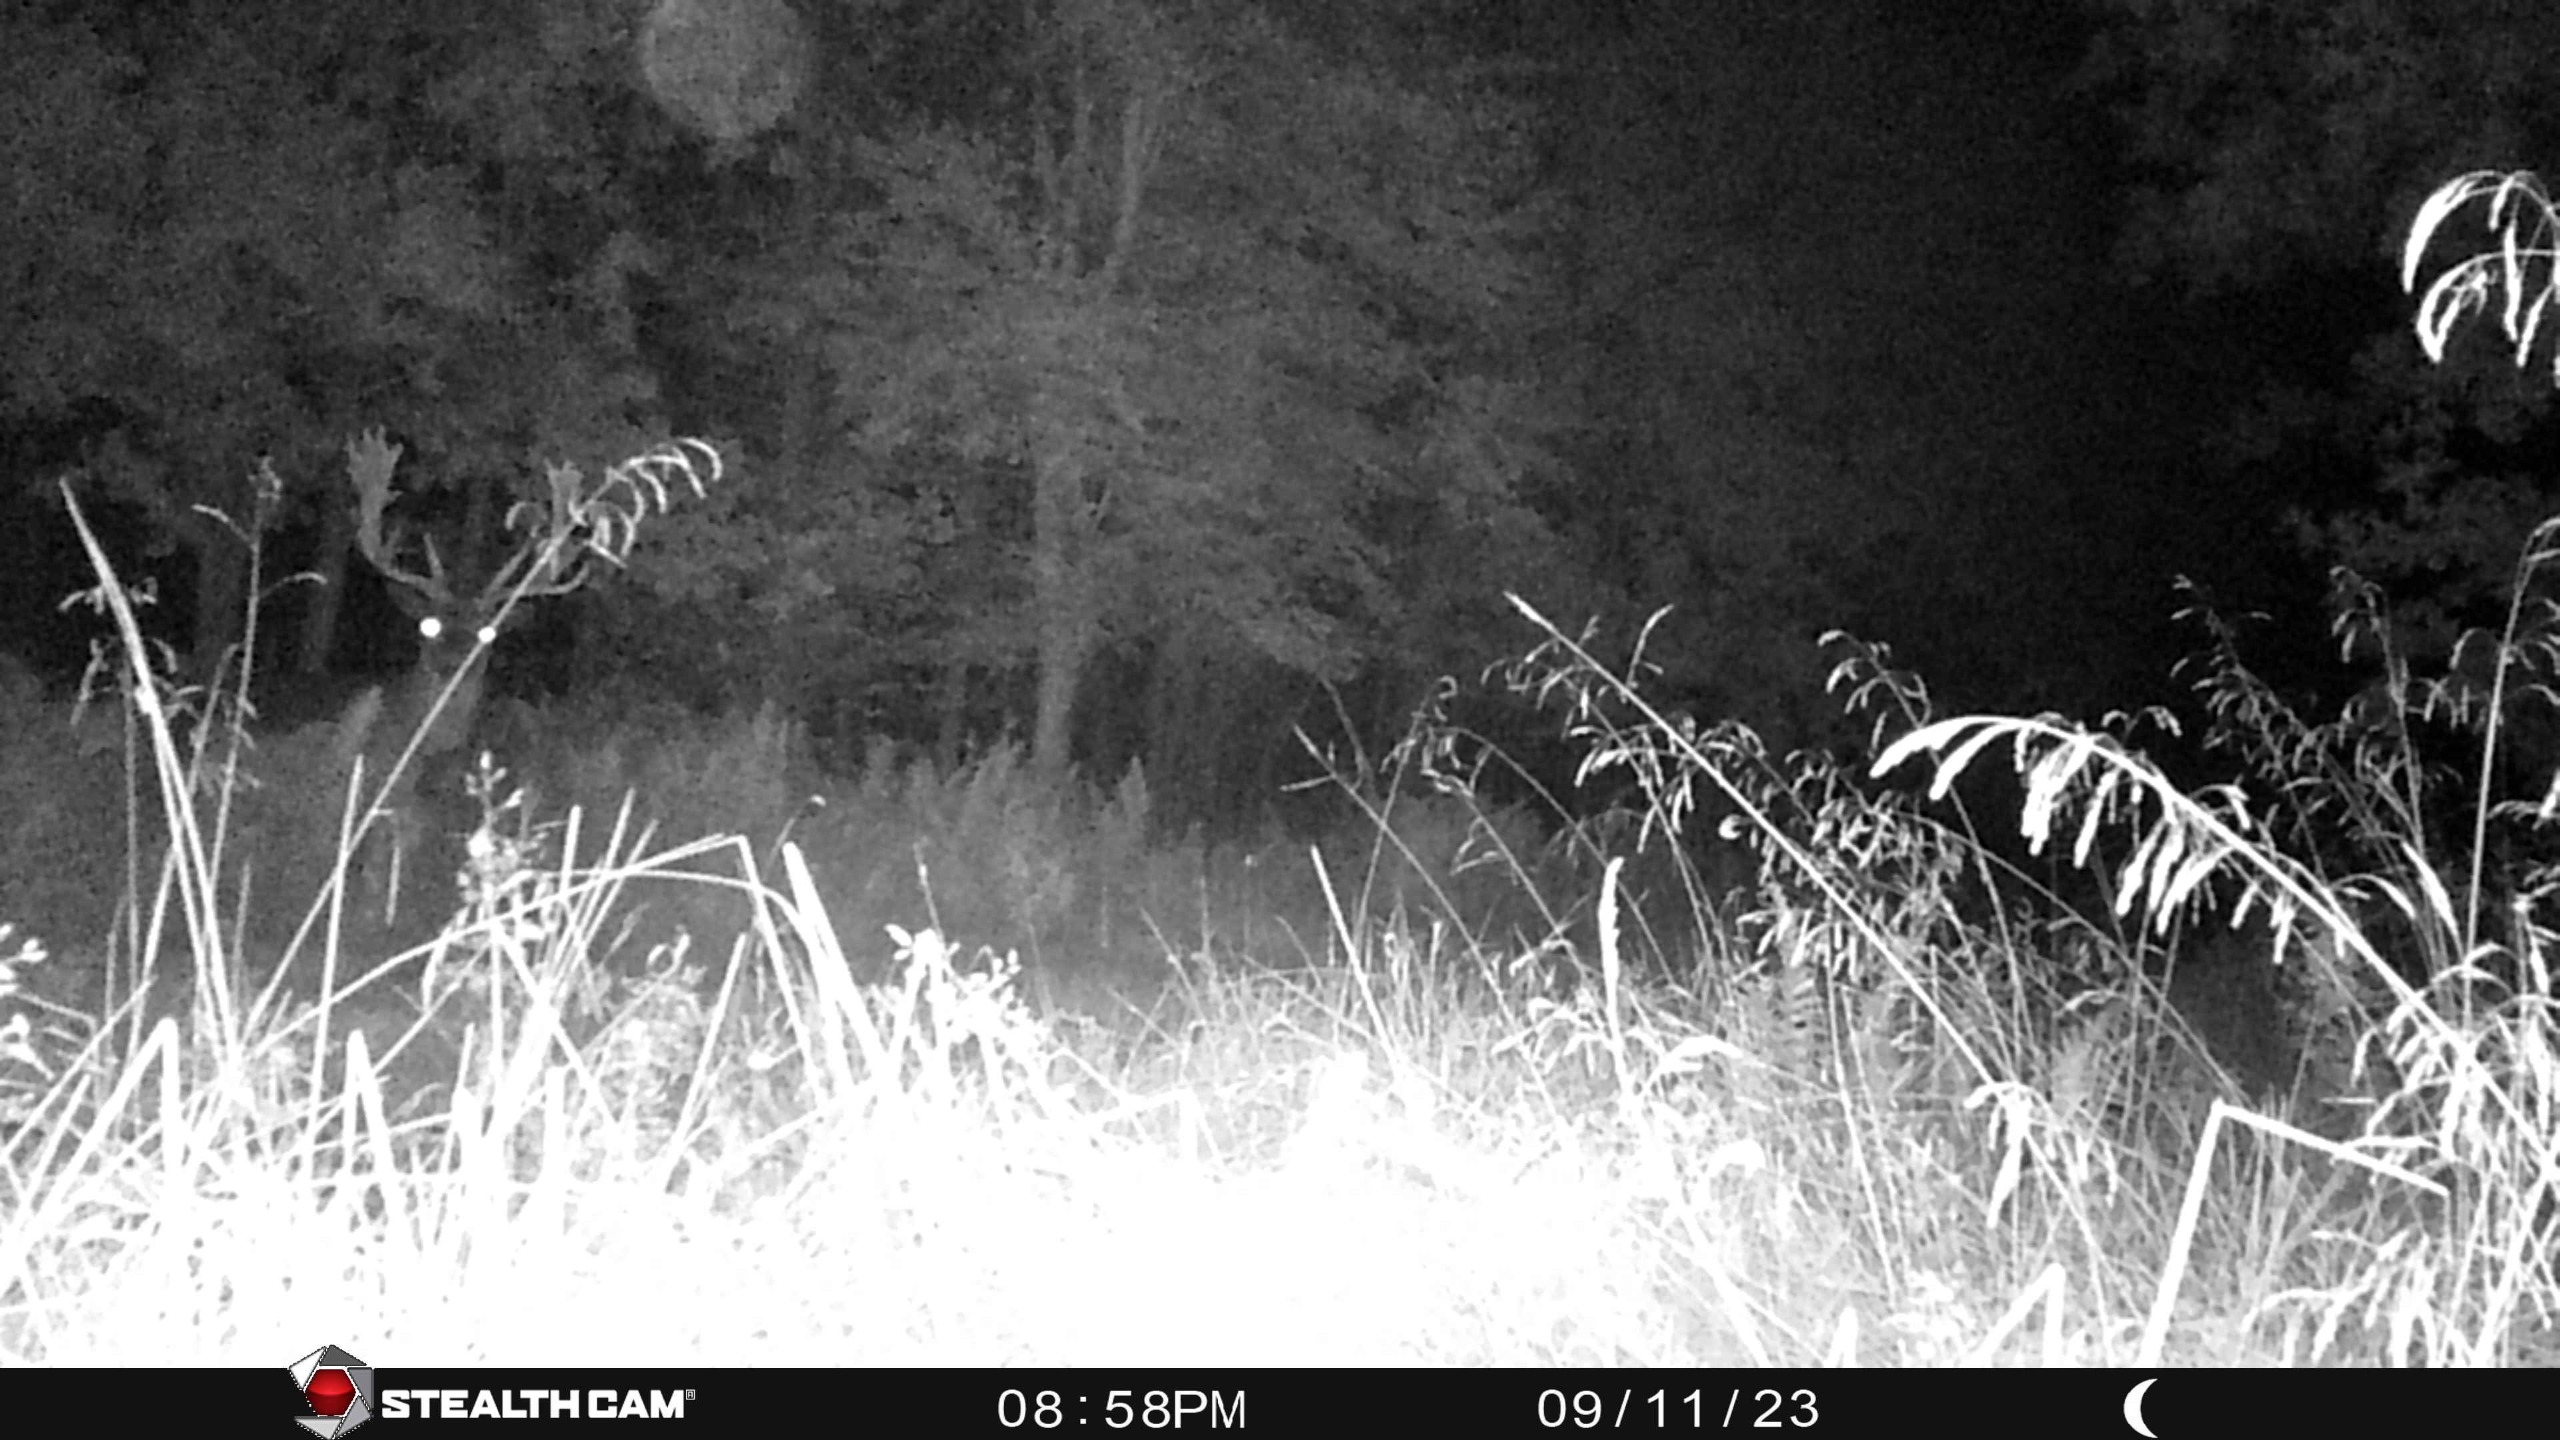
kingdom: Animalia
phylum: Chordata
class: Mammalia
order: Artiodactyla
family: Cervidae
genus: Dama
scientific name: Dama dama
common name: Dådyr
